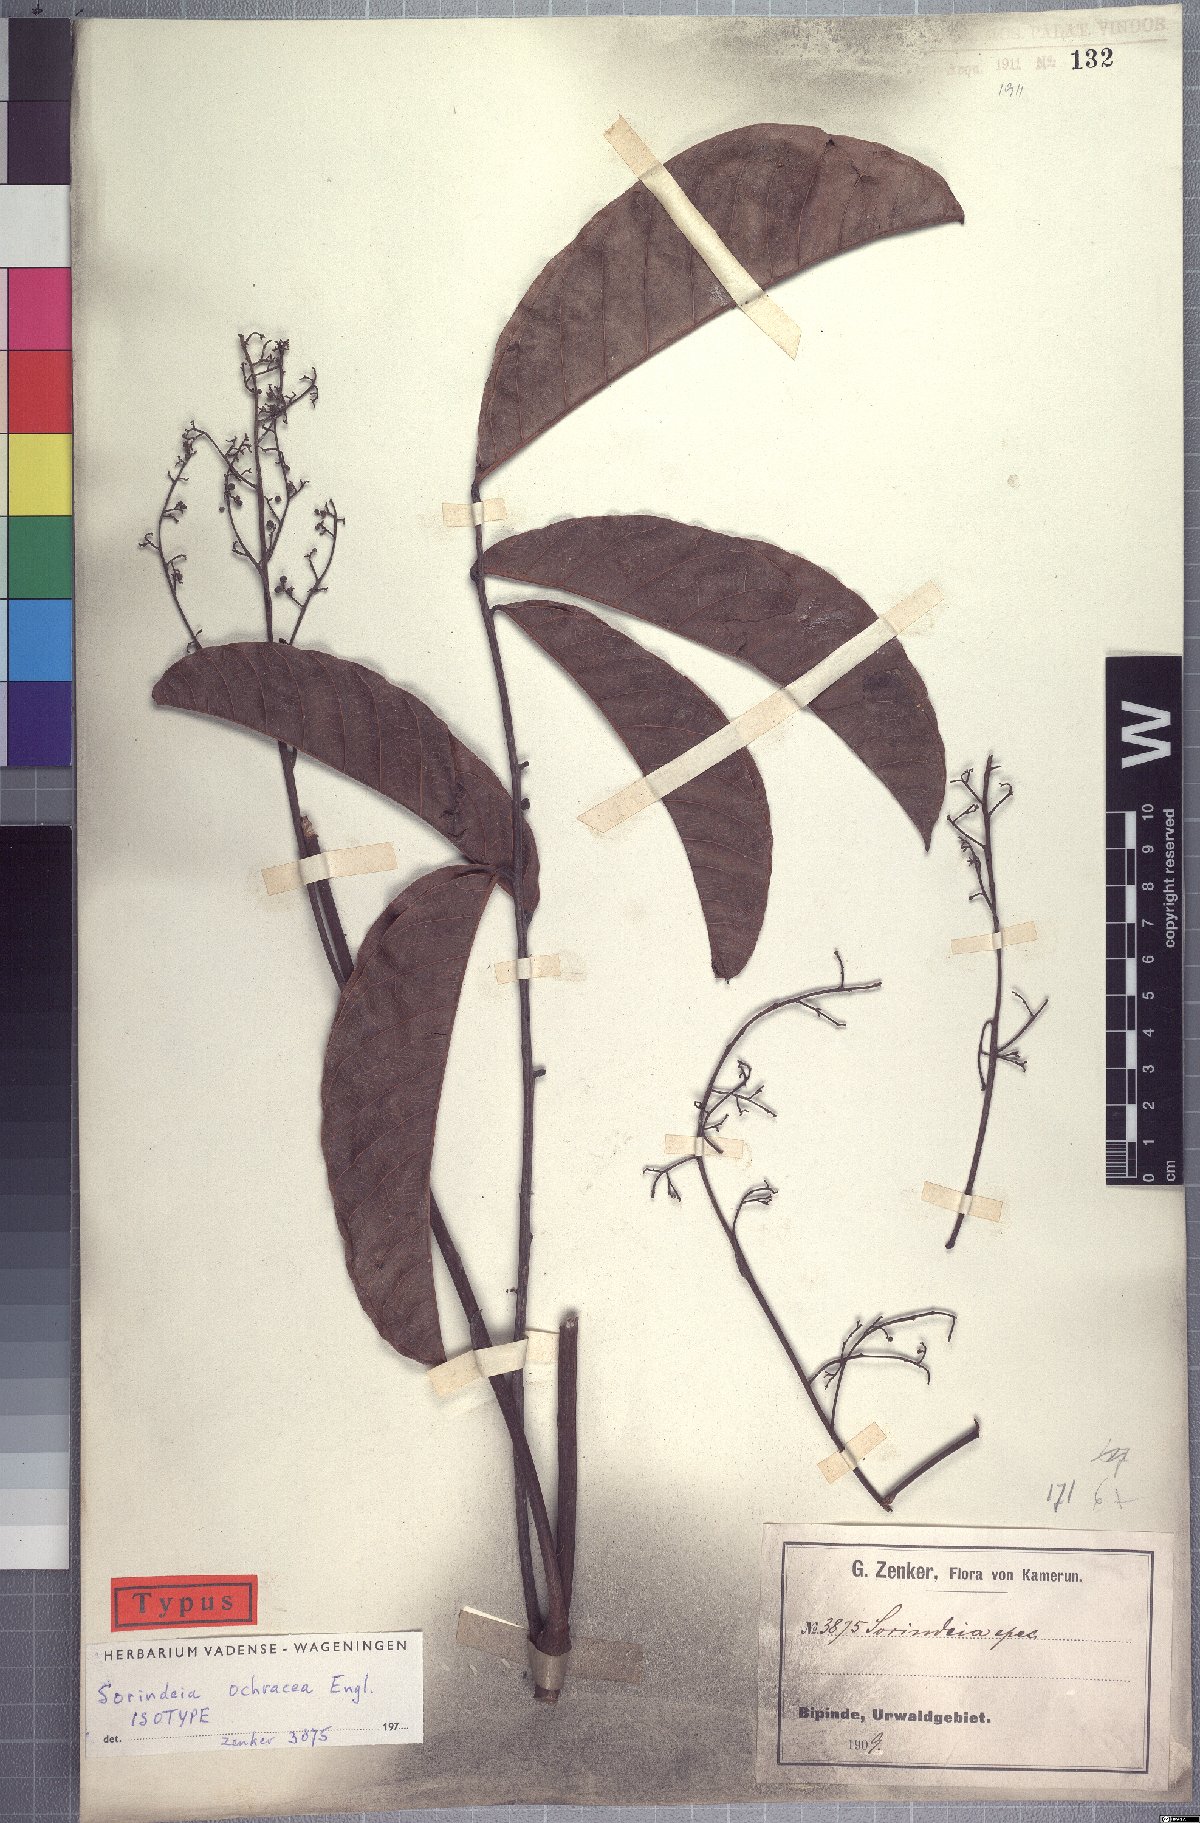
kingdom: Plantae
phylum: Tracheophyta
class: Magnoliopsida
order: Sapindales
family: Anacardiaceae
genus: Sorindeia
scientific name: Sorindeia africana
